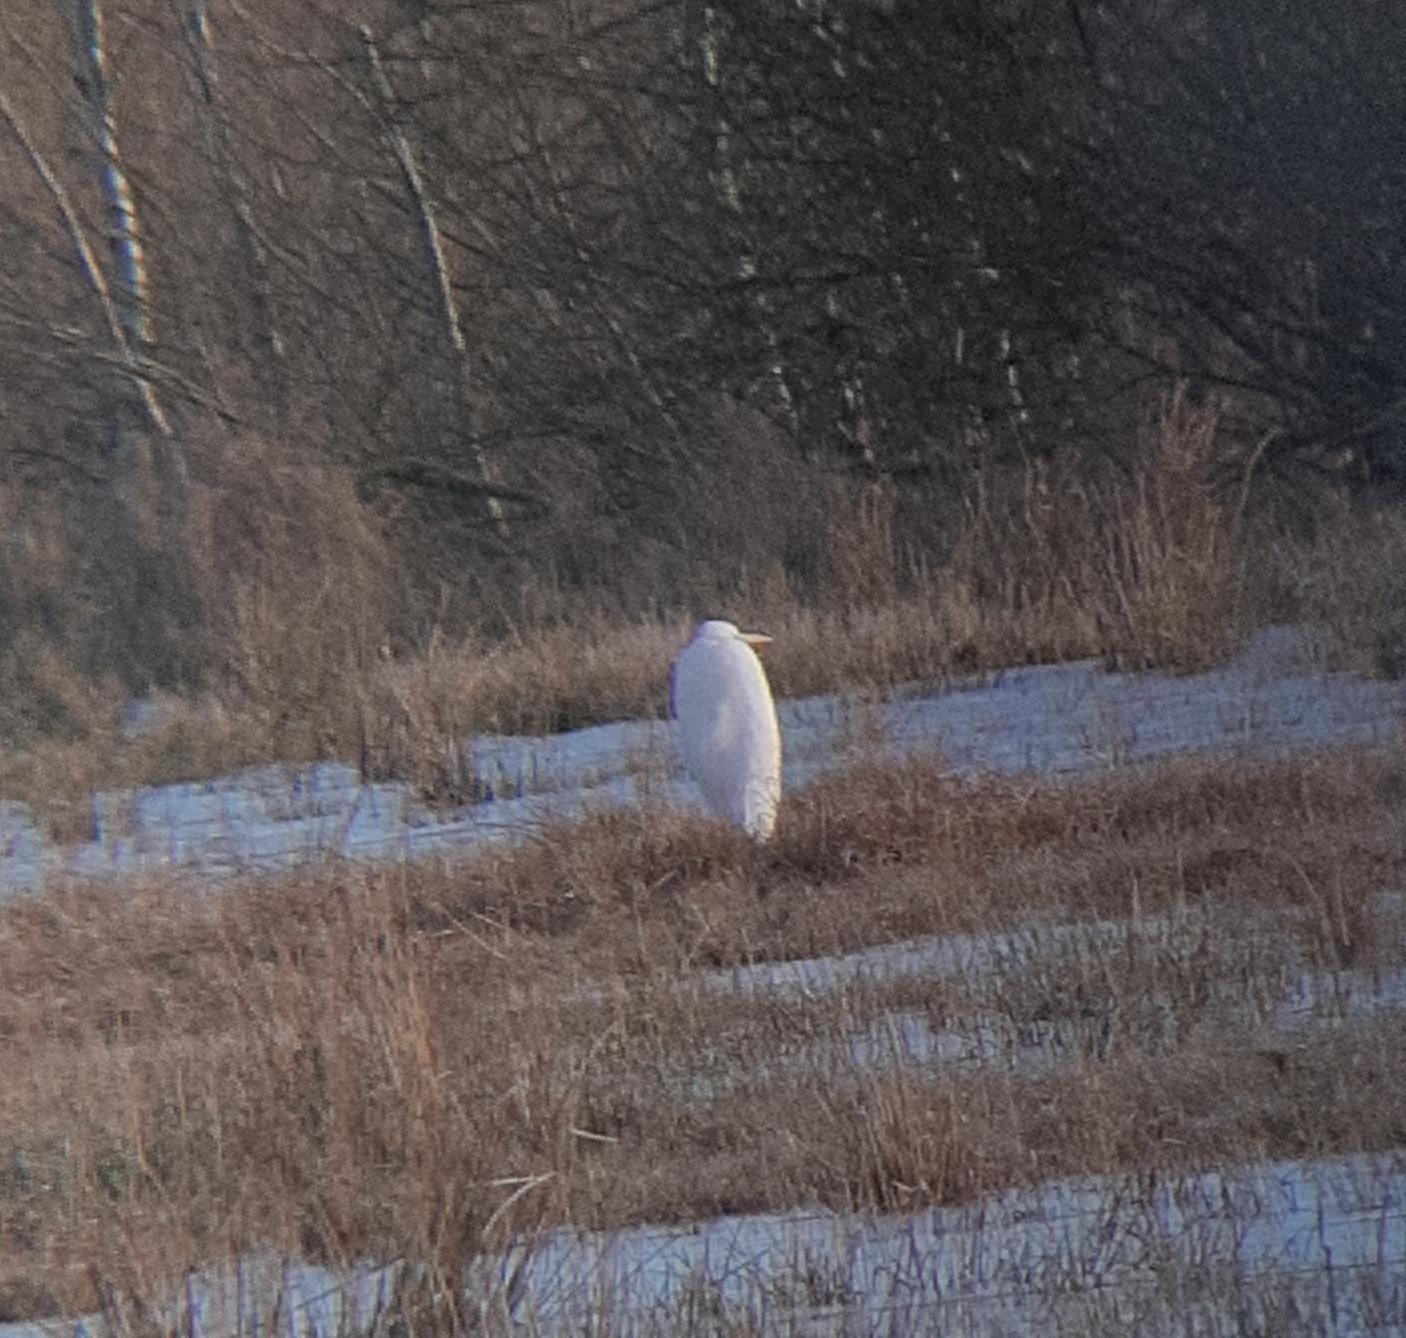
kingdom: Animalia
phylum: Chordata
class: Aves
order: Pelecaniformes
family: Ardeidae
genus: Ardea
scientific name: Ardea alba
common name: Sølvhejre
